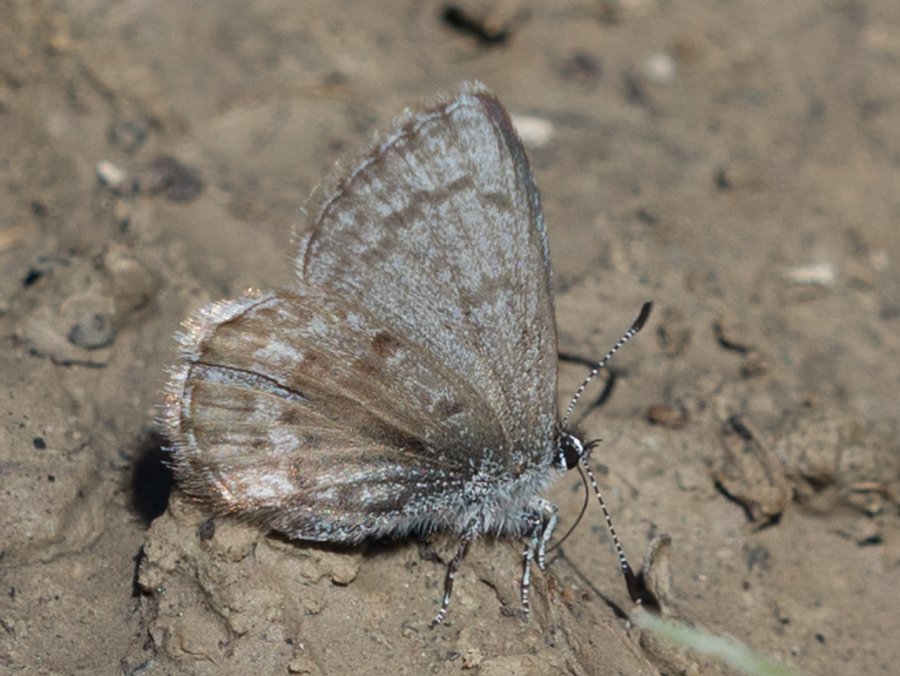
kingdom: Animalia
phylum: Arthropoda
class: Insecta
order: Lepidoptera
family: Lycaenidae
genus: Celastrina
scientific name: Celastrina lucia
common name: Northern Spring Azure
